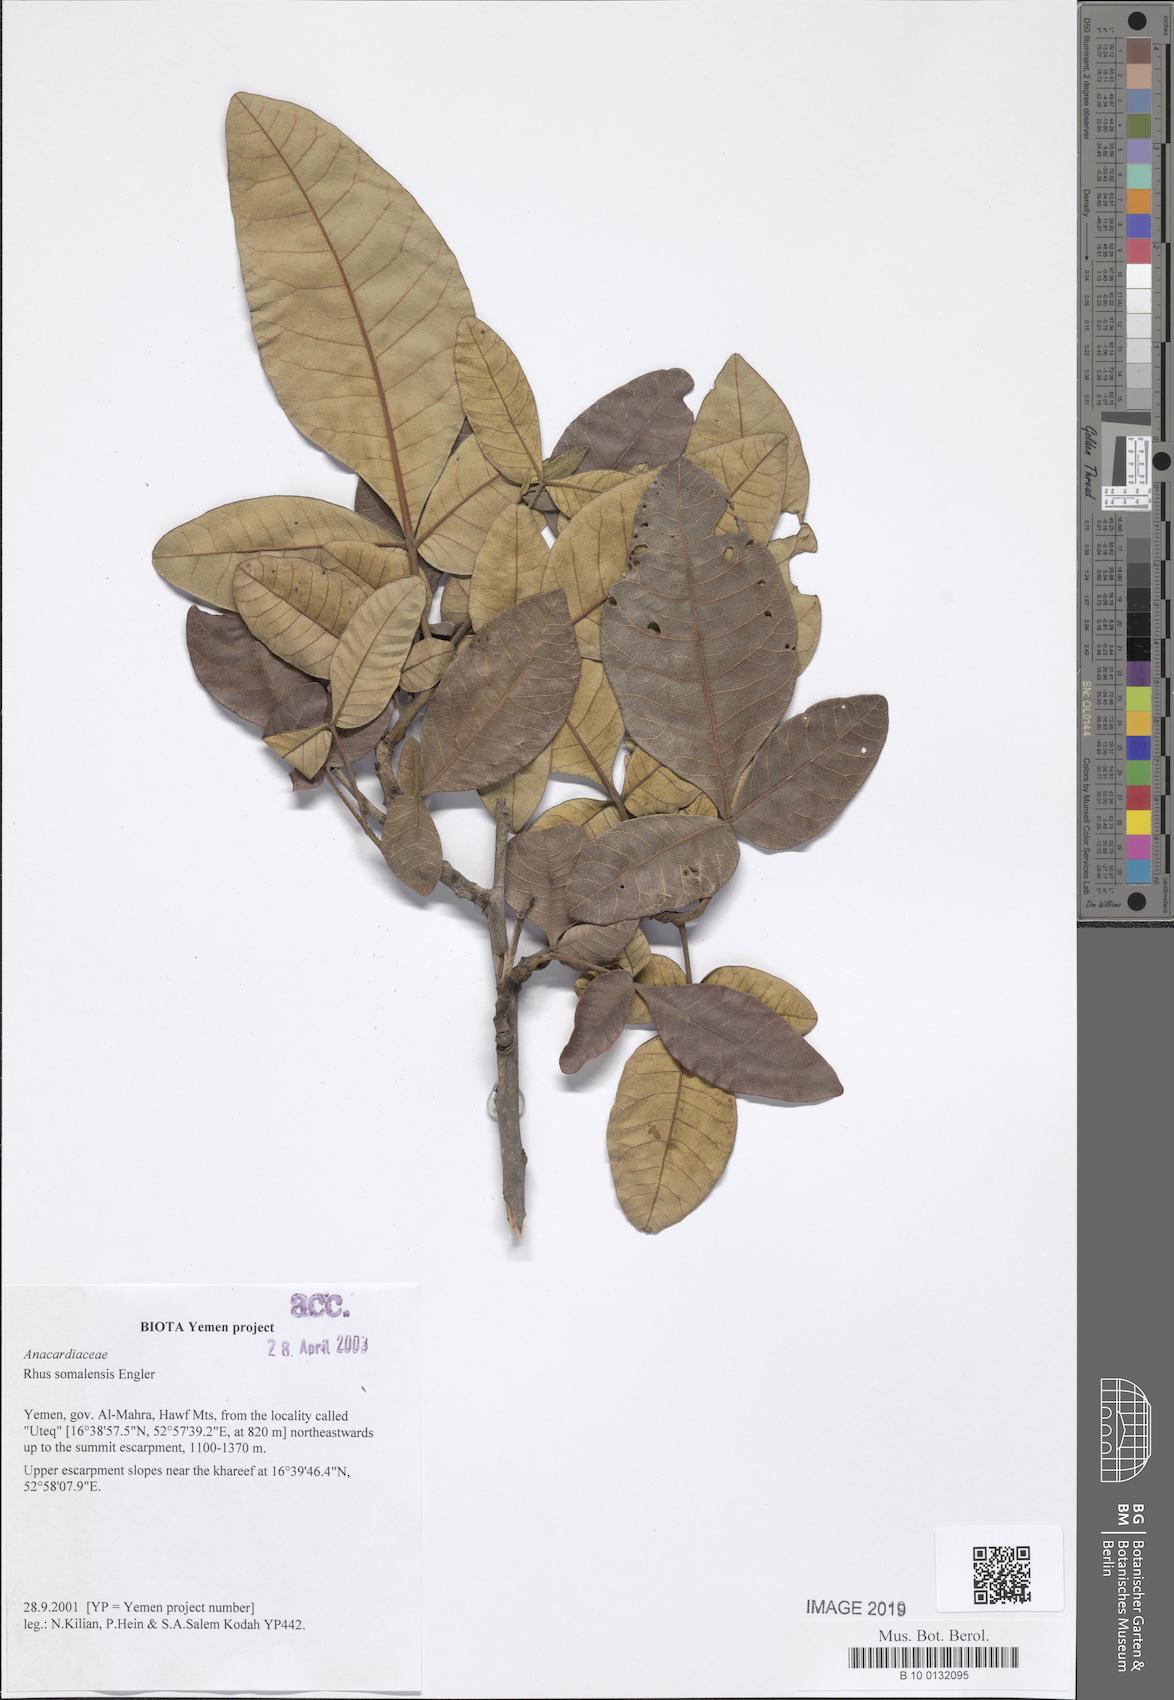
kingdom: Plantae
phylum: Tracheophyta
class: Magnoliopsida
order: Sapindales
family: Anacardiaceae
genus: Searsia
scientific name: Searsia somalensis
